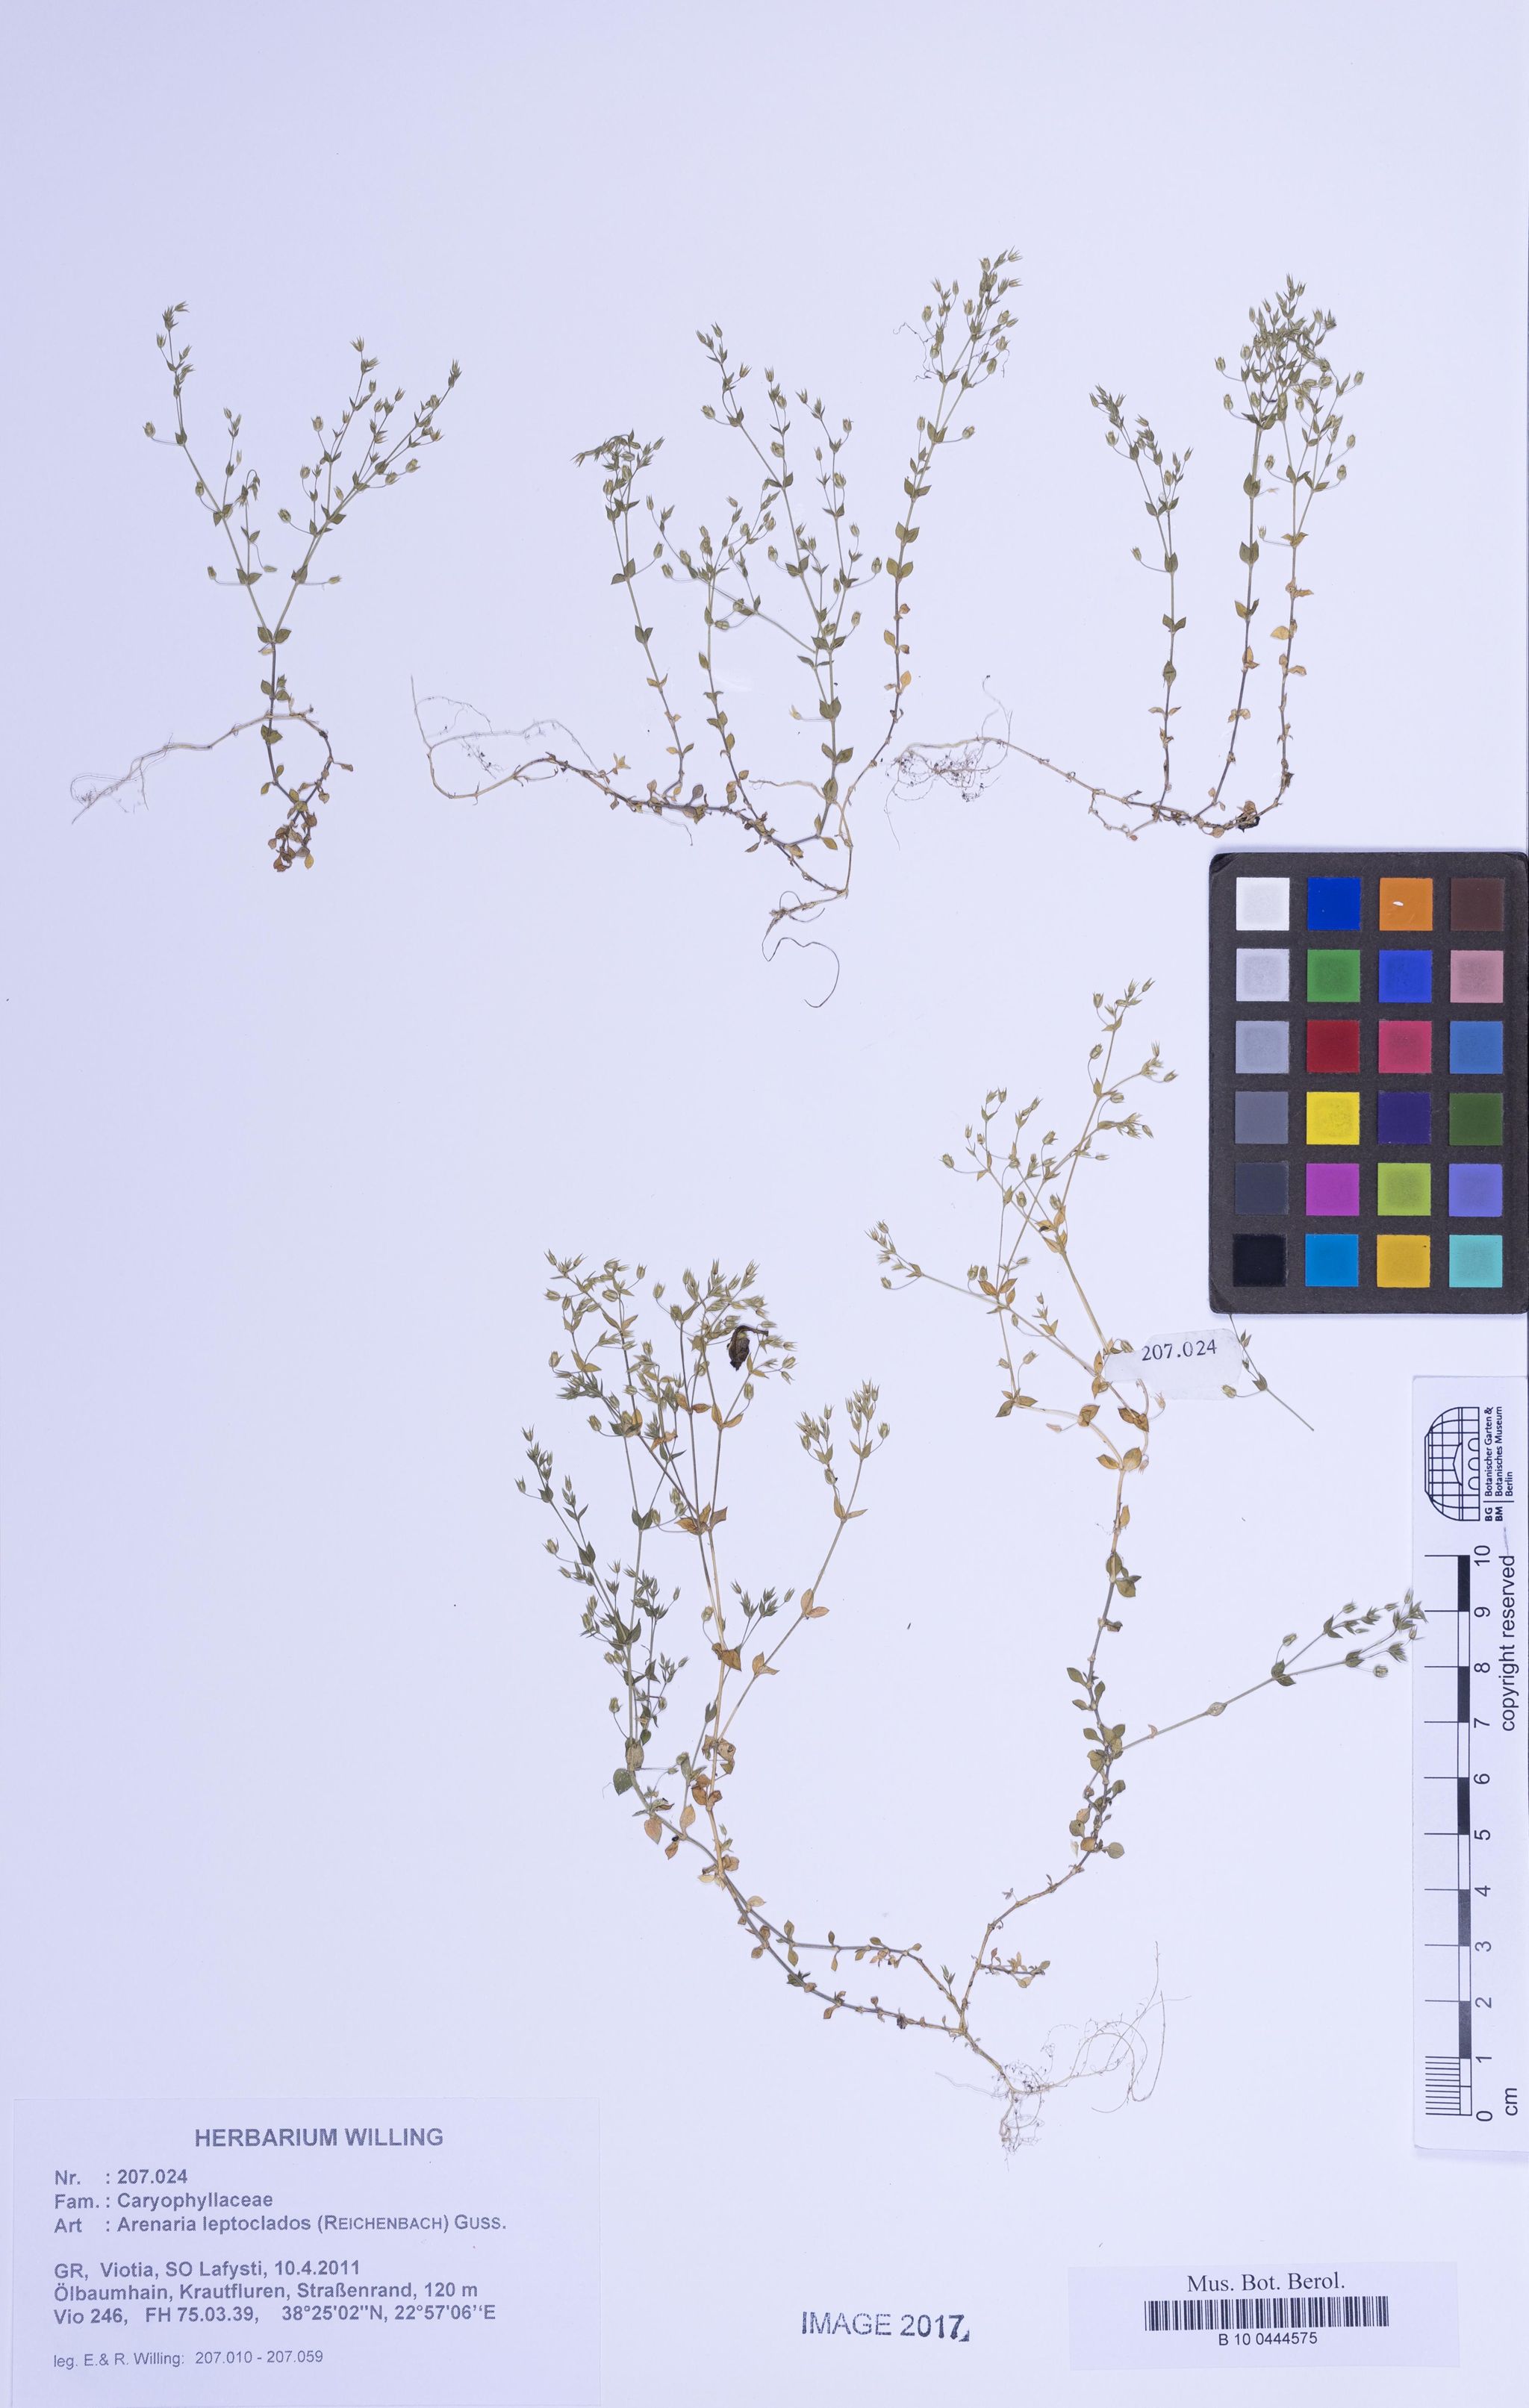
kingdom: Plantae
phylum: Tracheophyta
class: Magnoliopsida
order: Caryophyllales
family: Caryophyllaceae
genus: Arenaria
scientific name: Arenaria leptoclados
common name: Thyme-leaved sandwort
